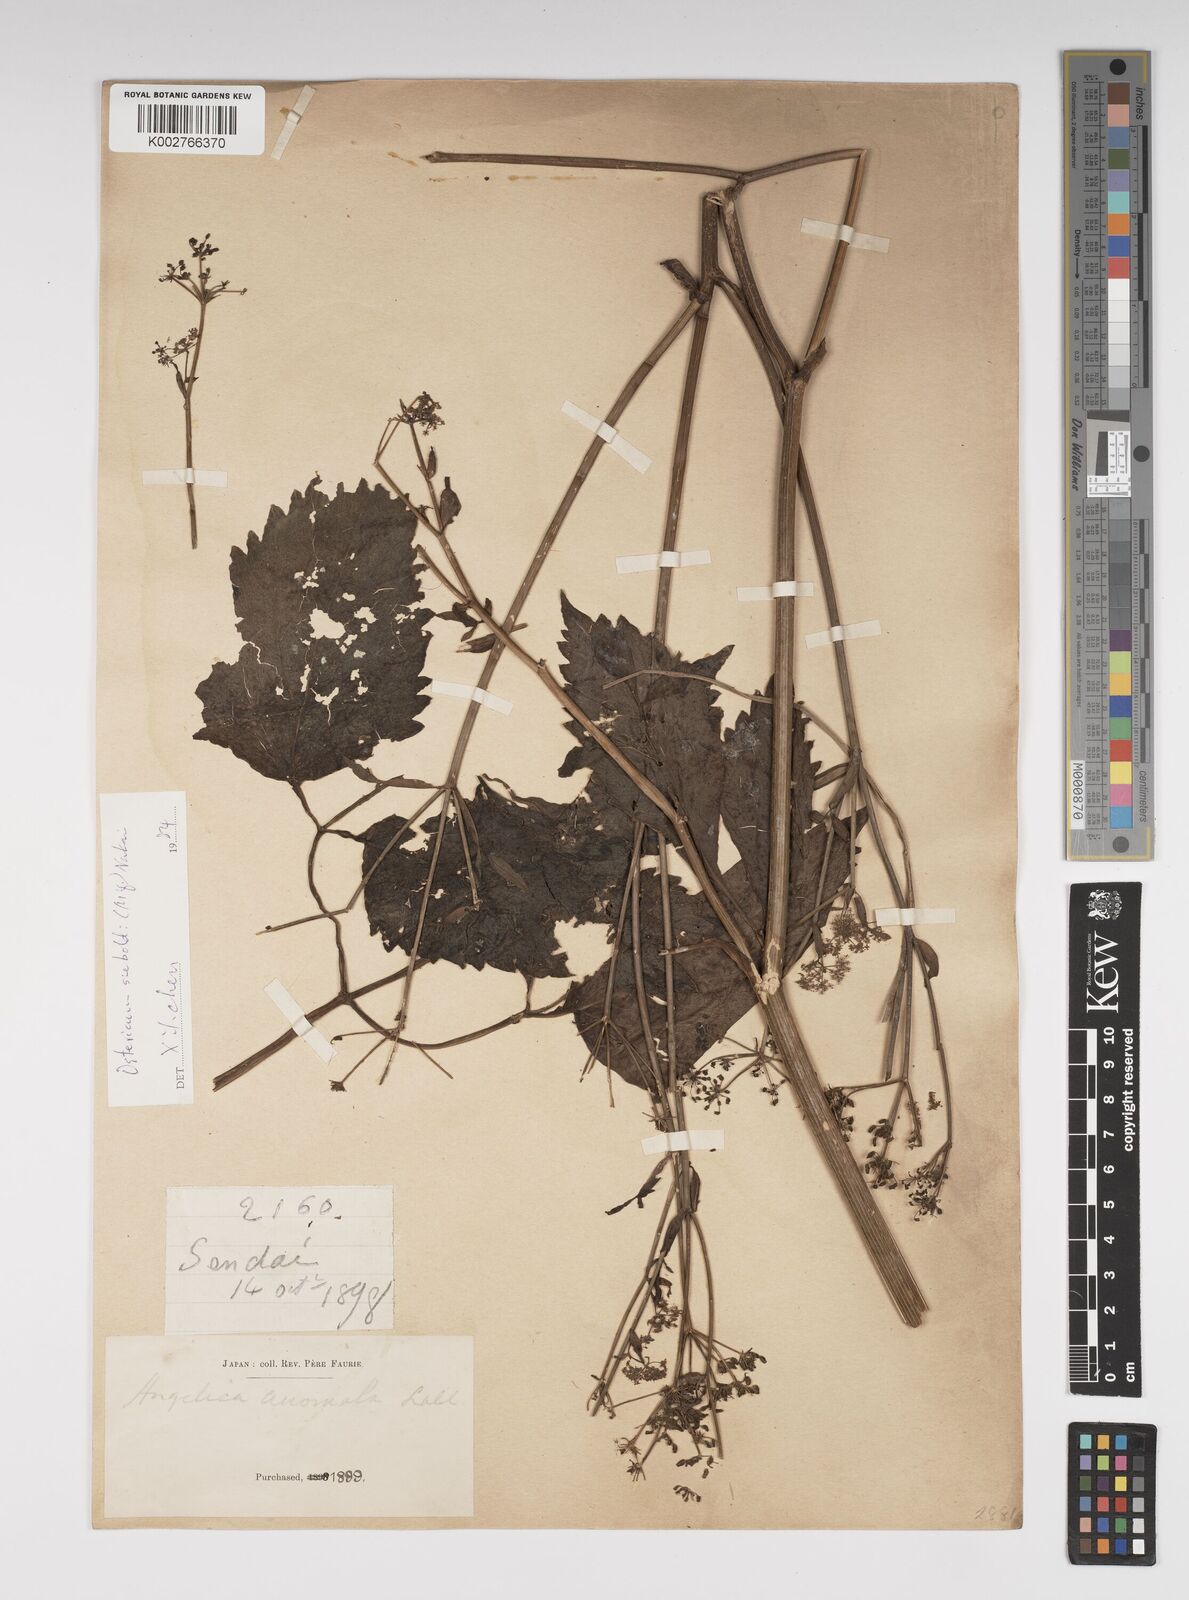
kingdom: Plantae
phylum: Tracheophyta
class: Magnoliopsida
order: Apiales
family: Apiaceae
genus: Ostericum
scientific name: Ostericum sieboldii
